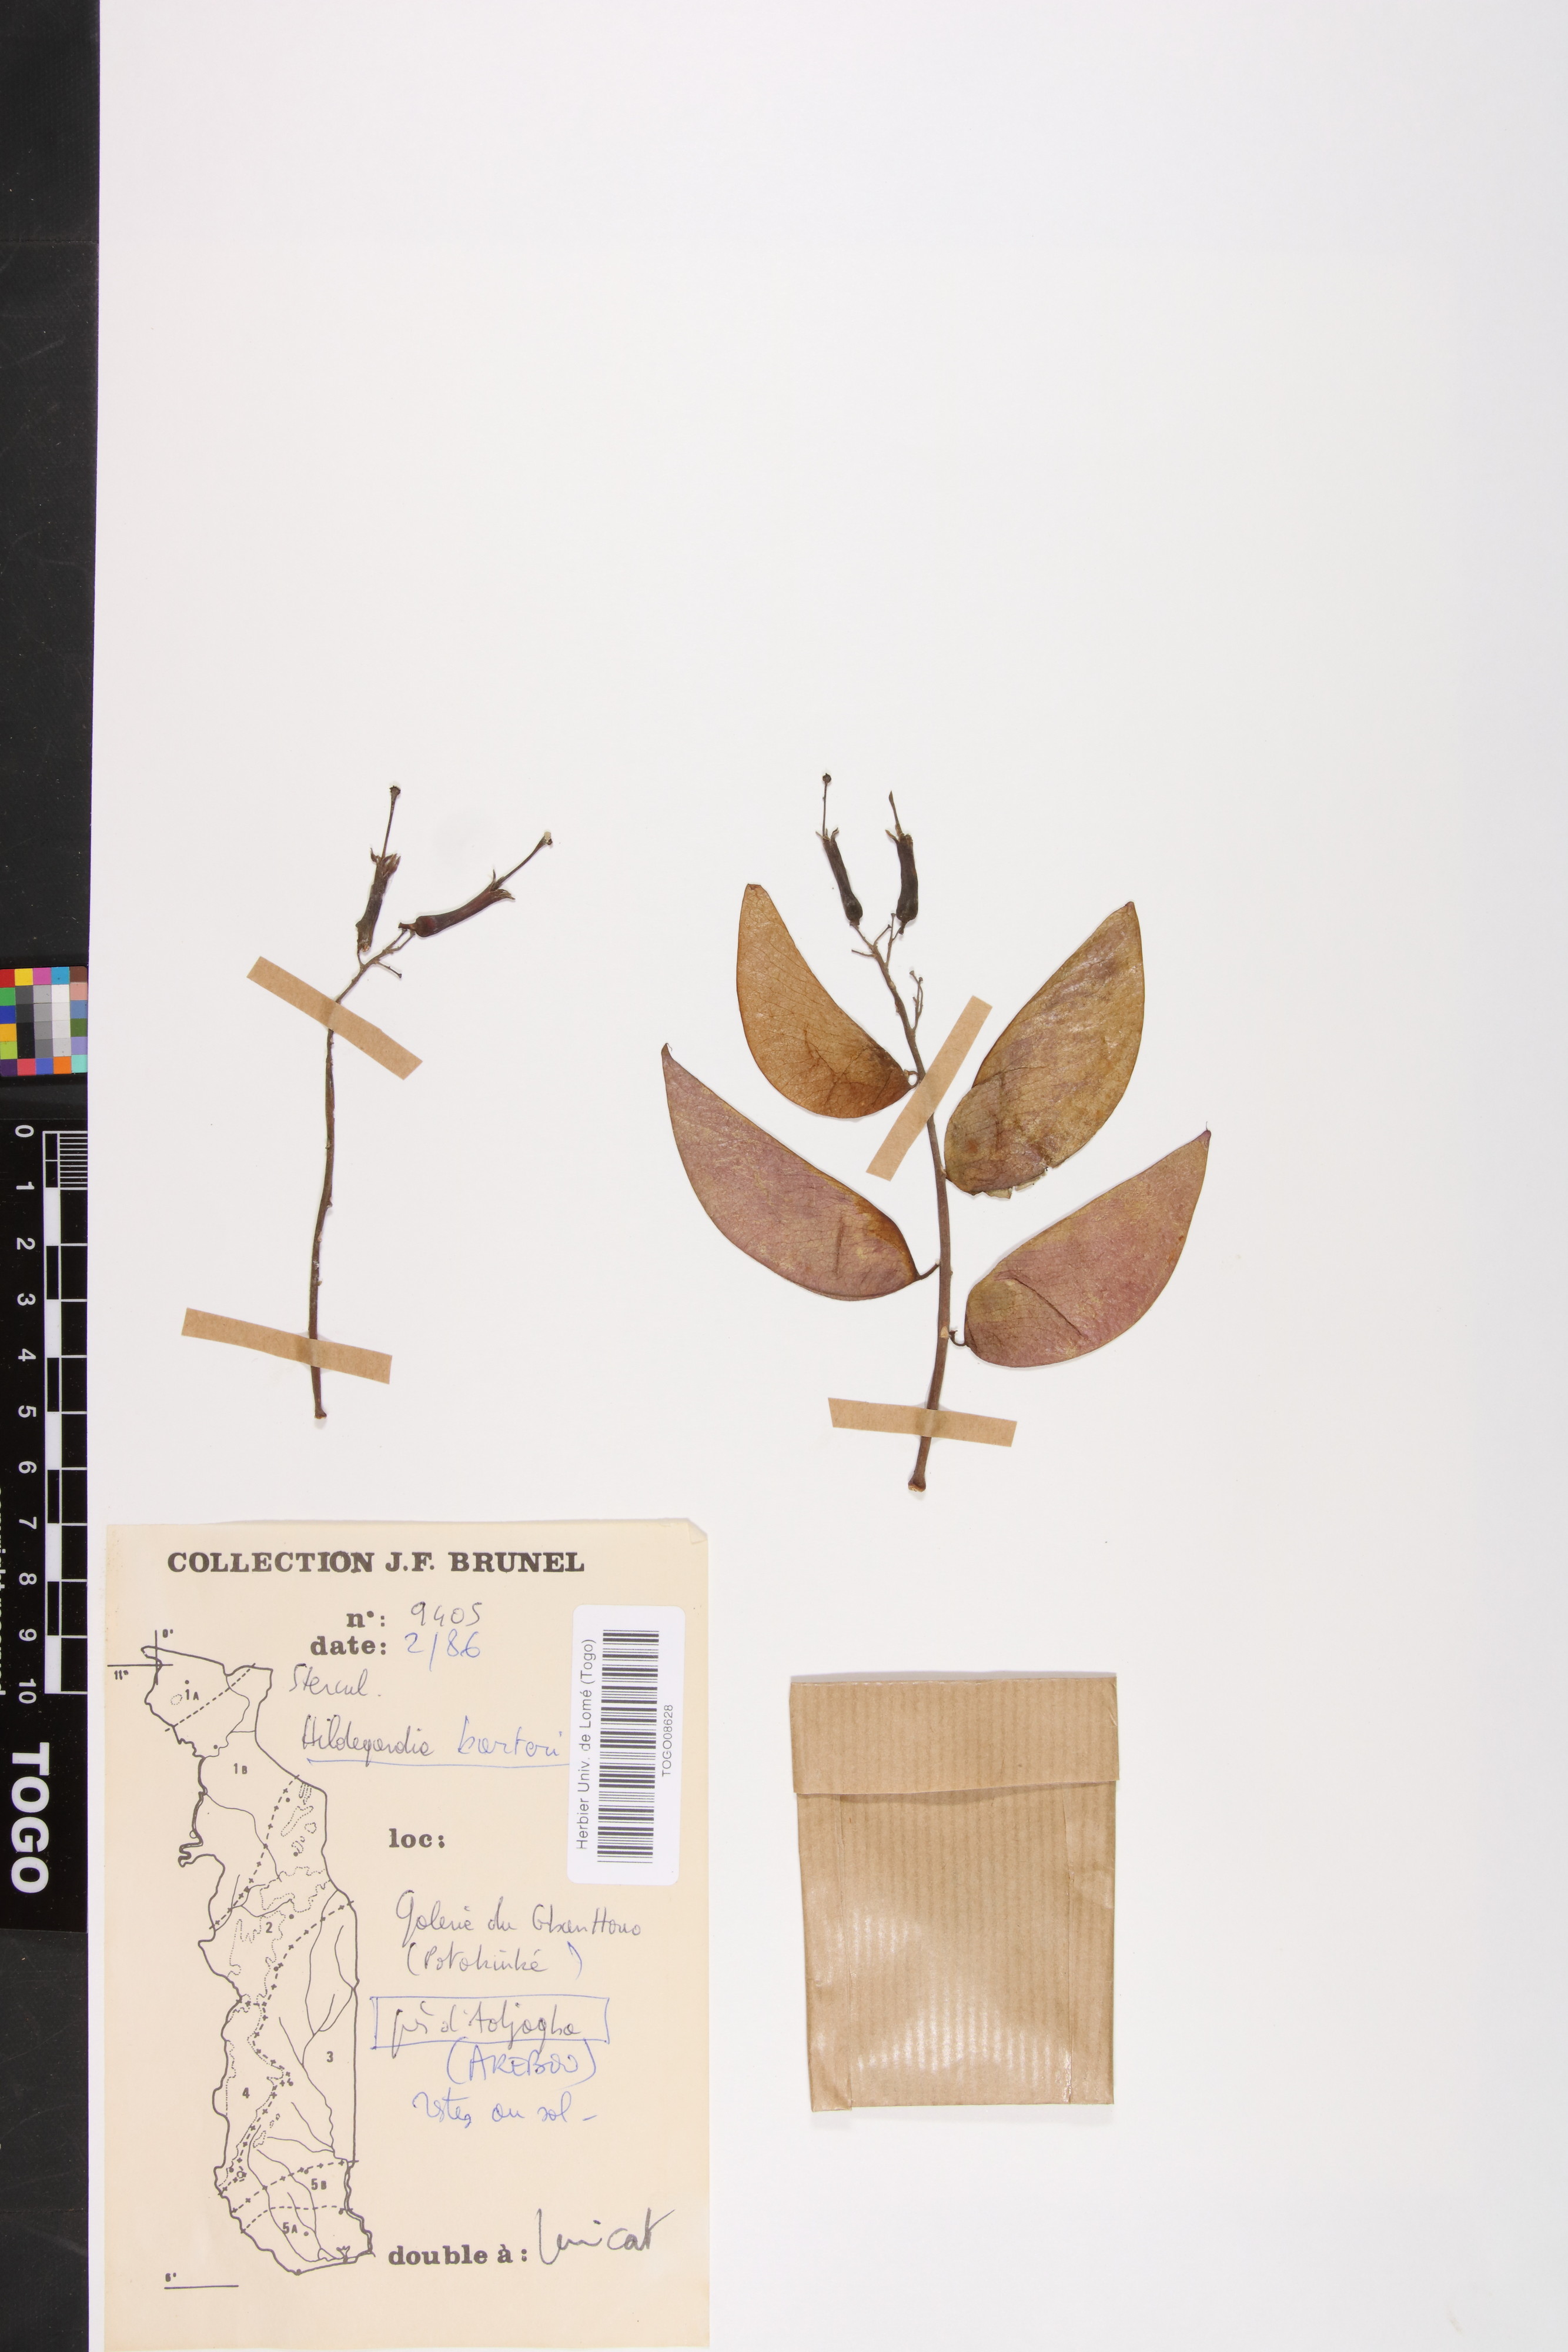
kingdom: Plantae
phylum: Tracheophyta
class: Magnoliopsida
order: Malvales
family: Malvaceae
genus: Hildegardia
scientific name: Hildegardia barteri
